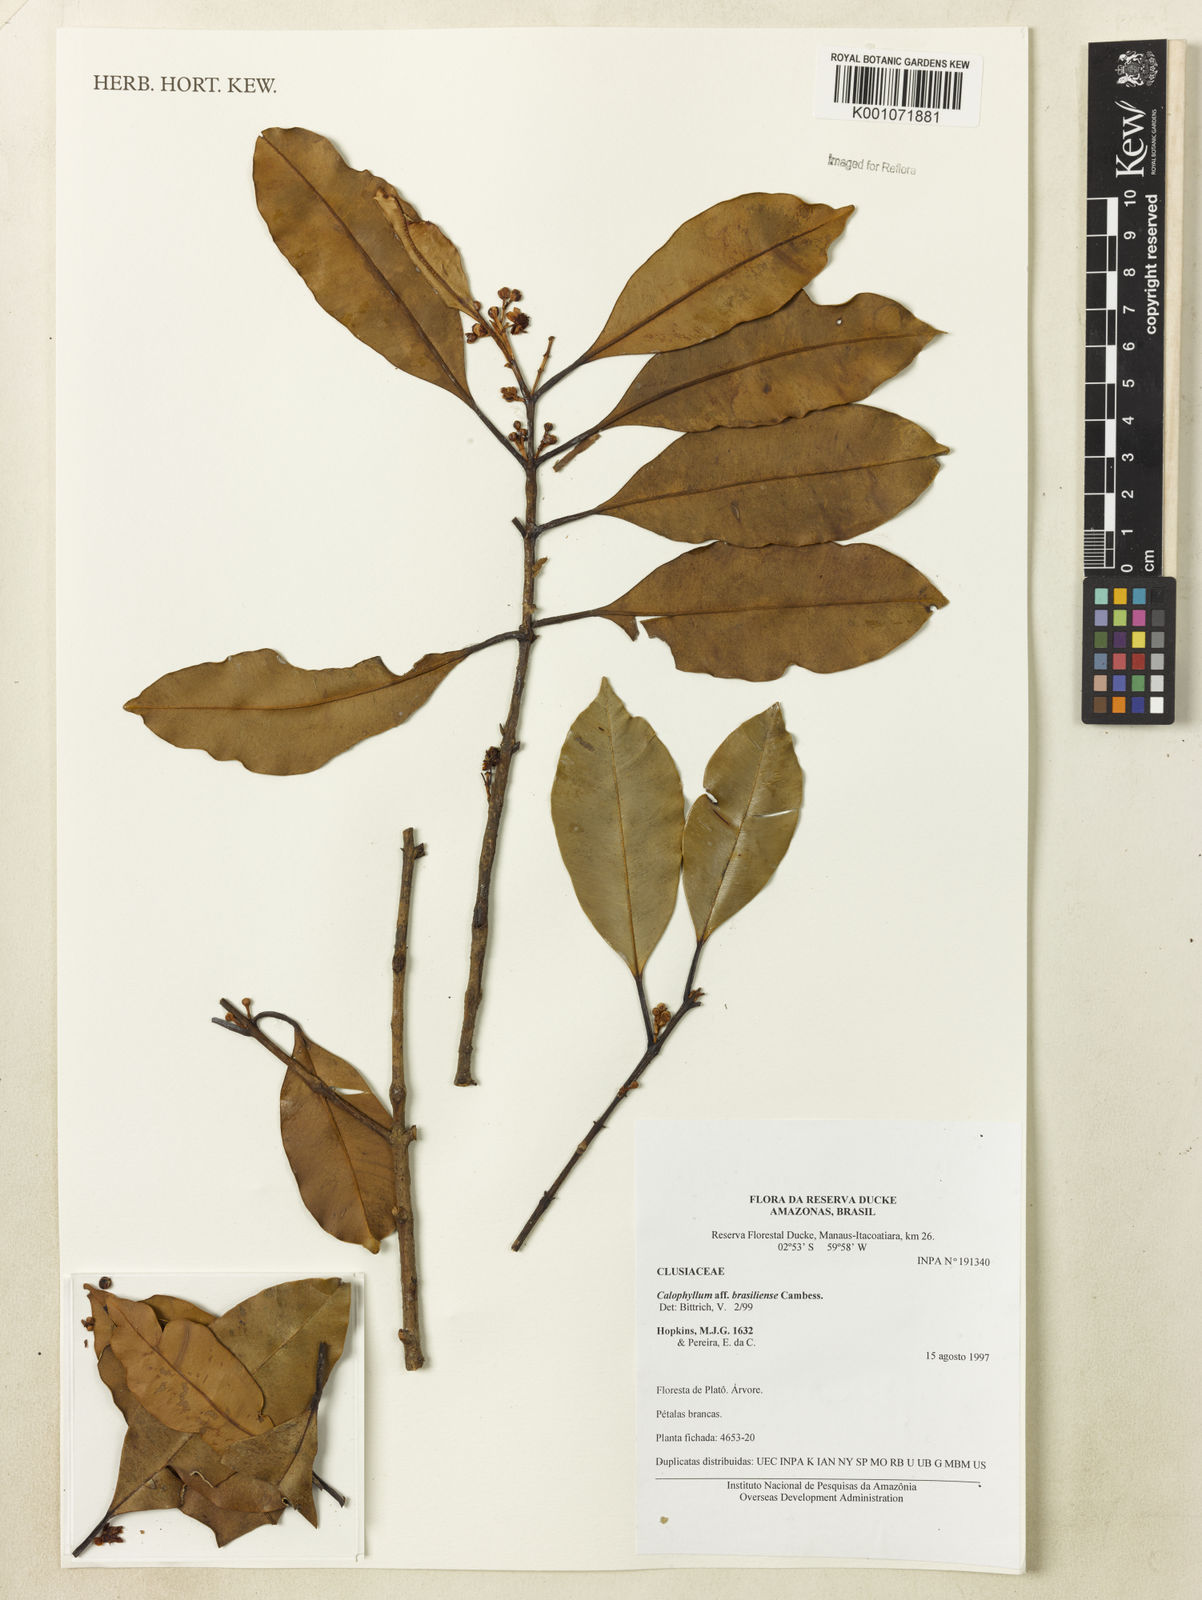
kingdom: Plantae
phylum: Tracheophyta
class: Magnoliopsida
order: Malpighiales
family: Calophyllaceae
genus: Calophyllum
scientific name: Calophyllum brasiliense
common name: Santa maria
